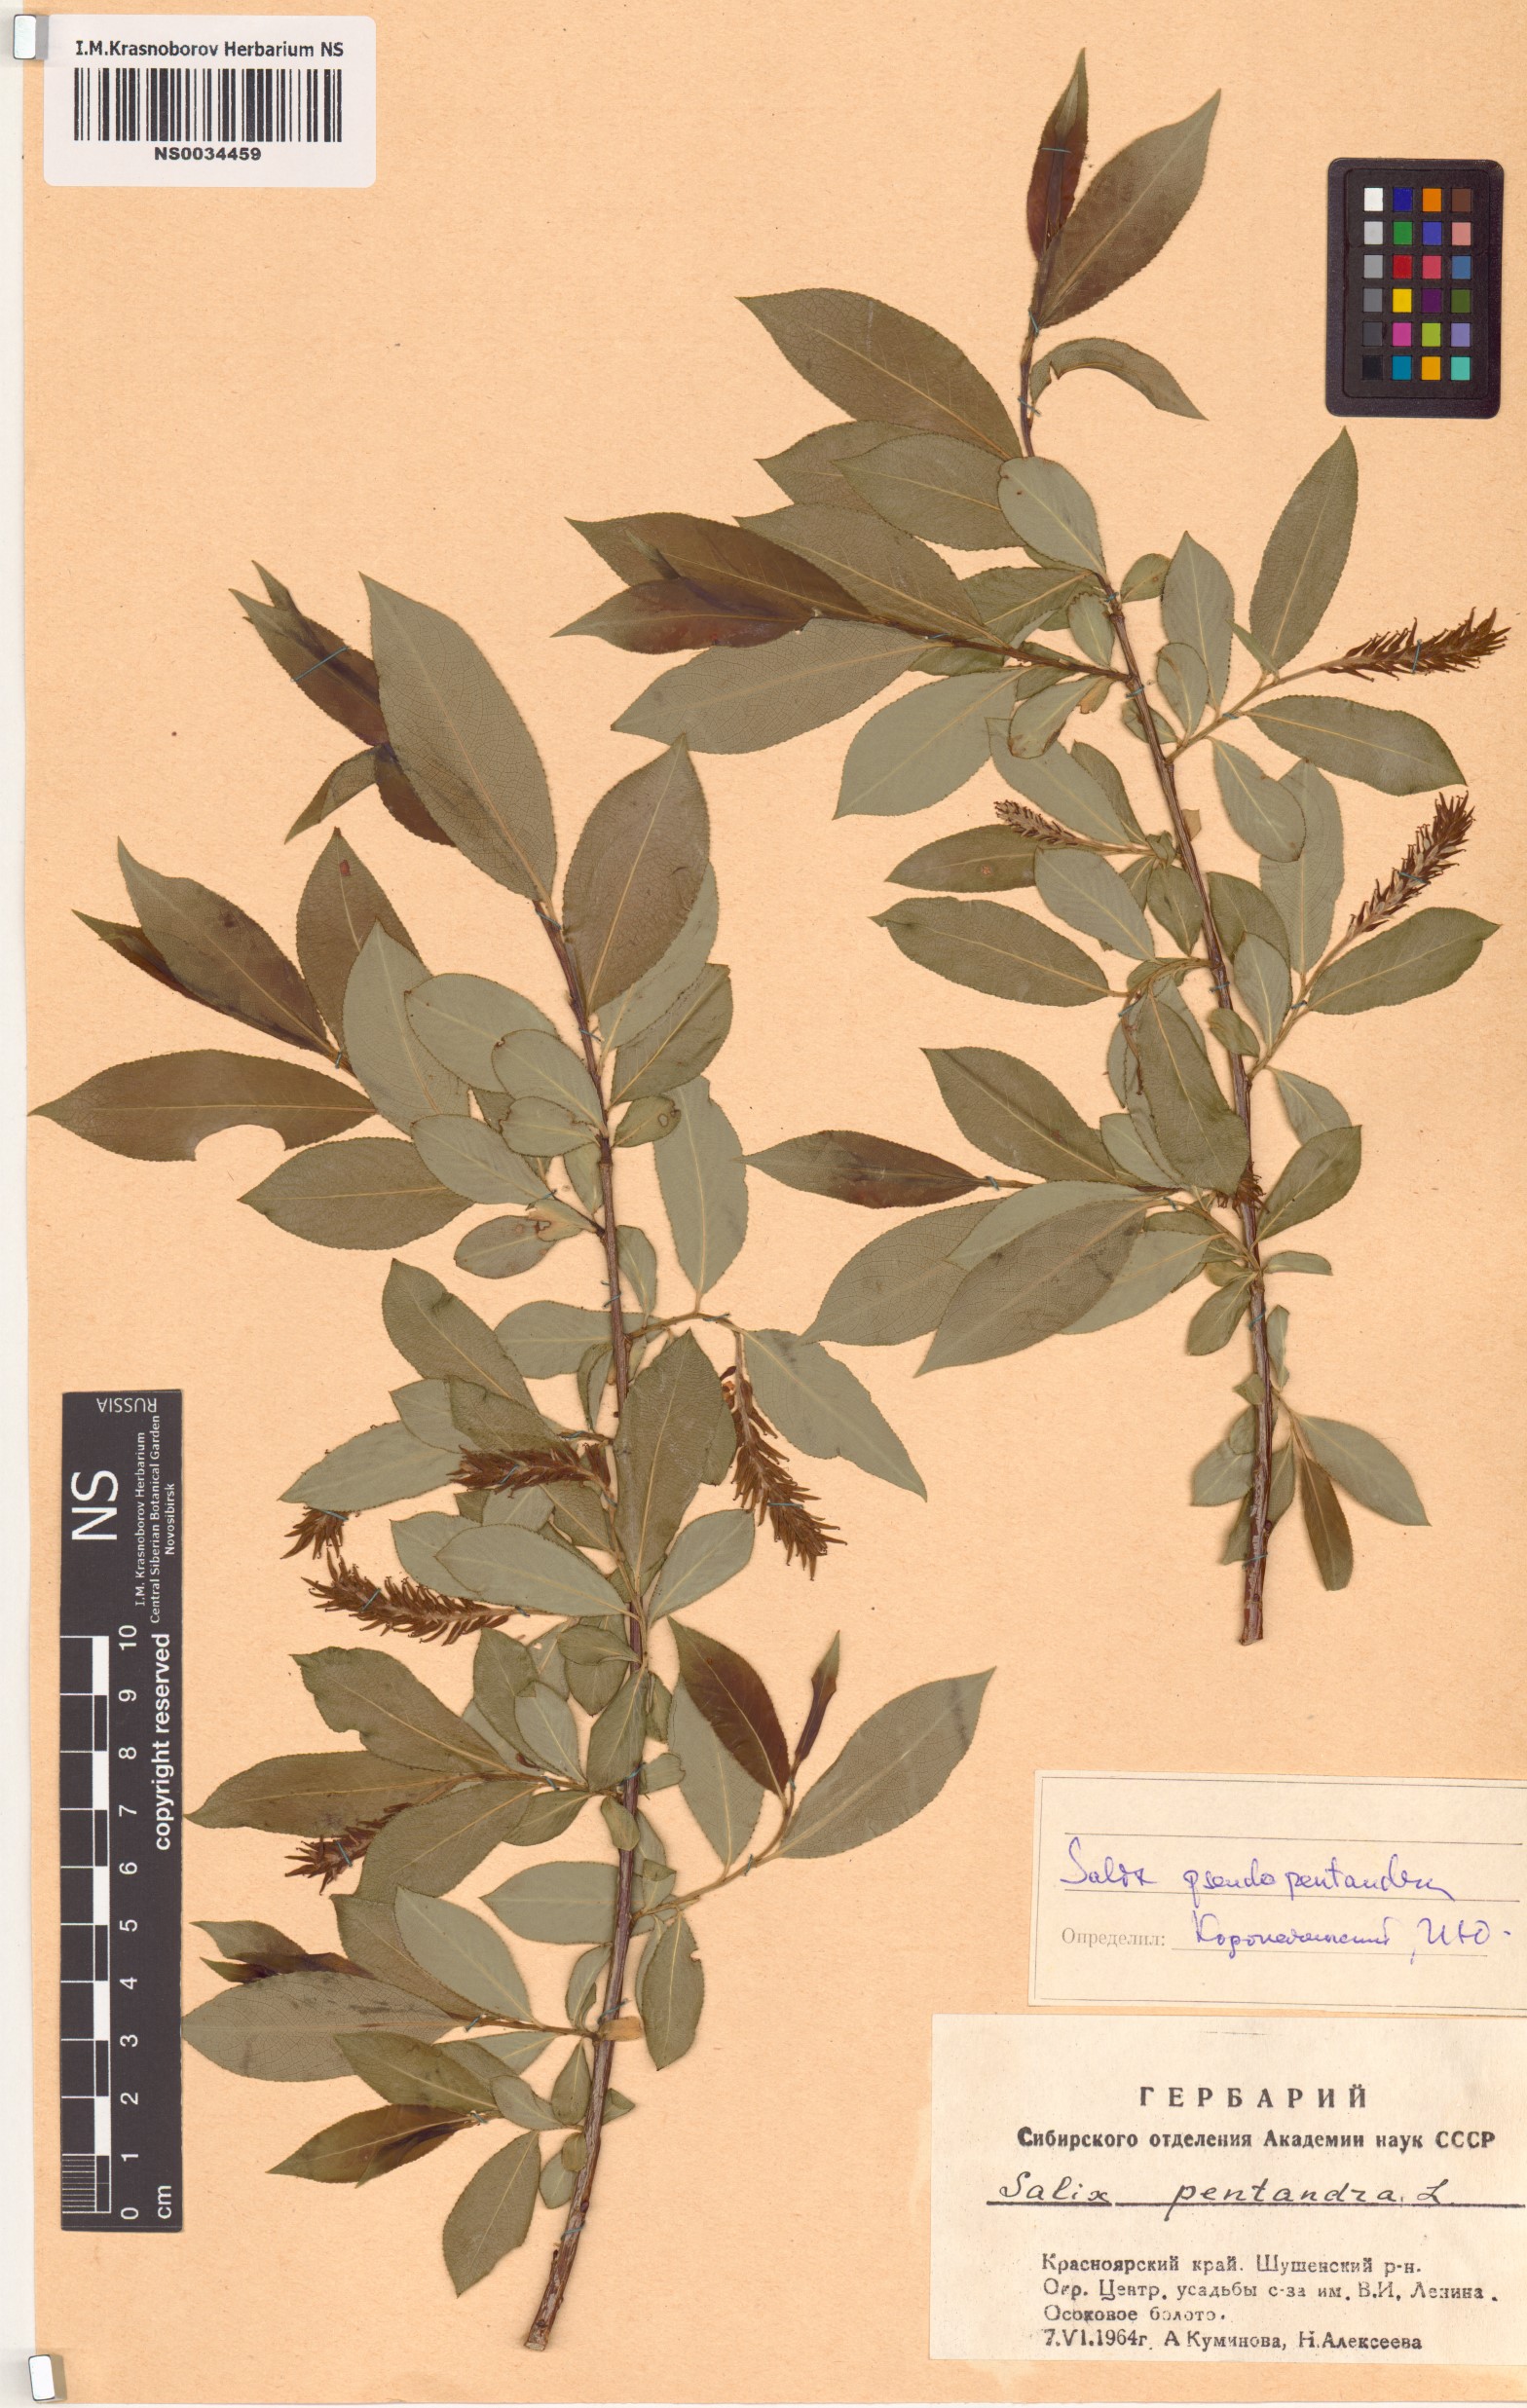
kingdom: Plantae
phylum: Tracheophyta
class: Magnoliopsida
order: Malpighiales
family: Salicaceae
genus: Salix
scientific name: Salix pseudopentandra
